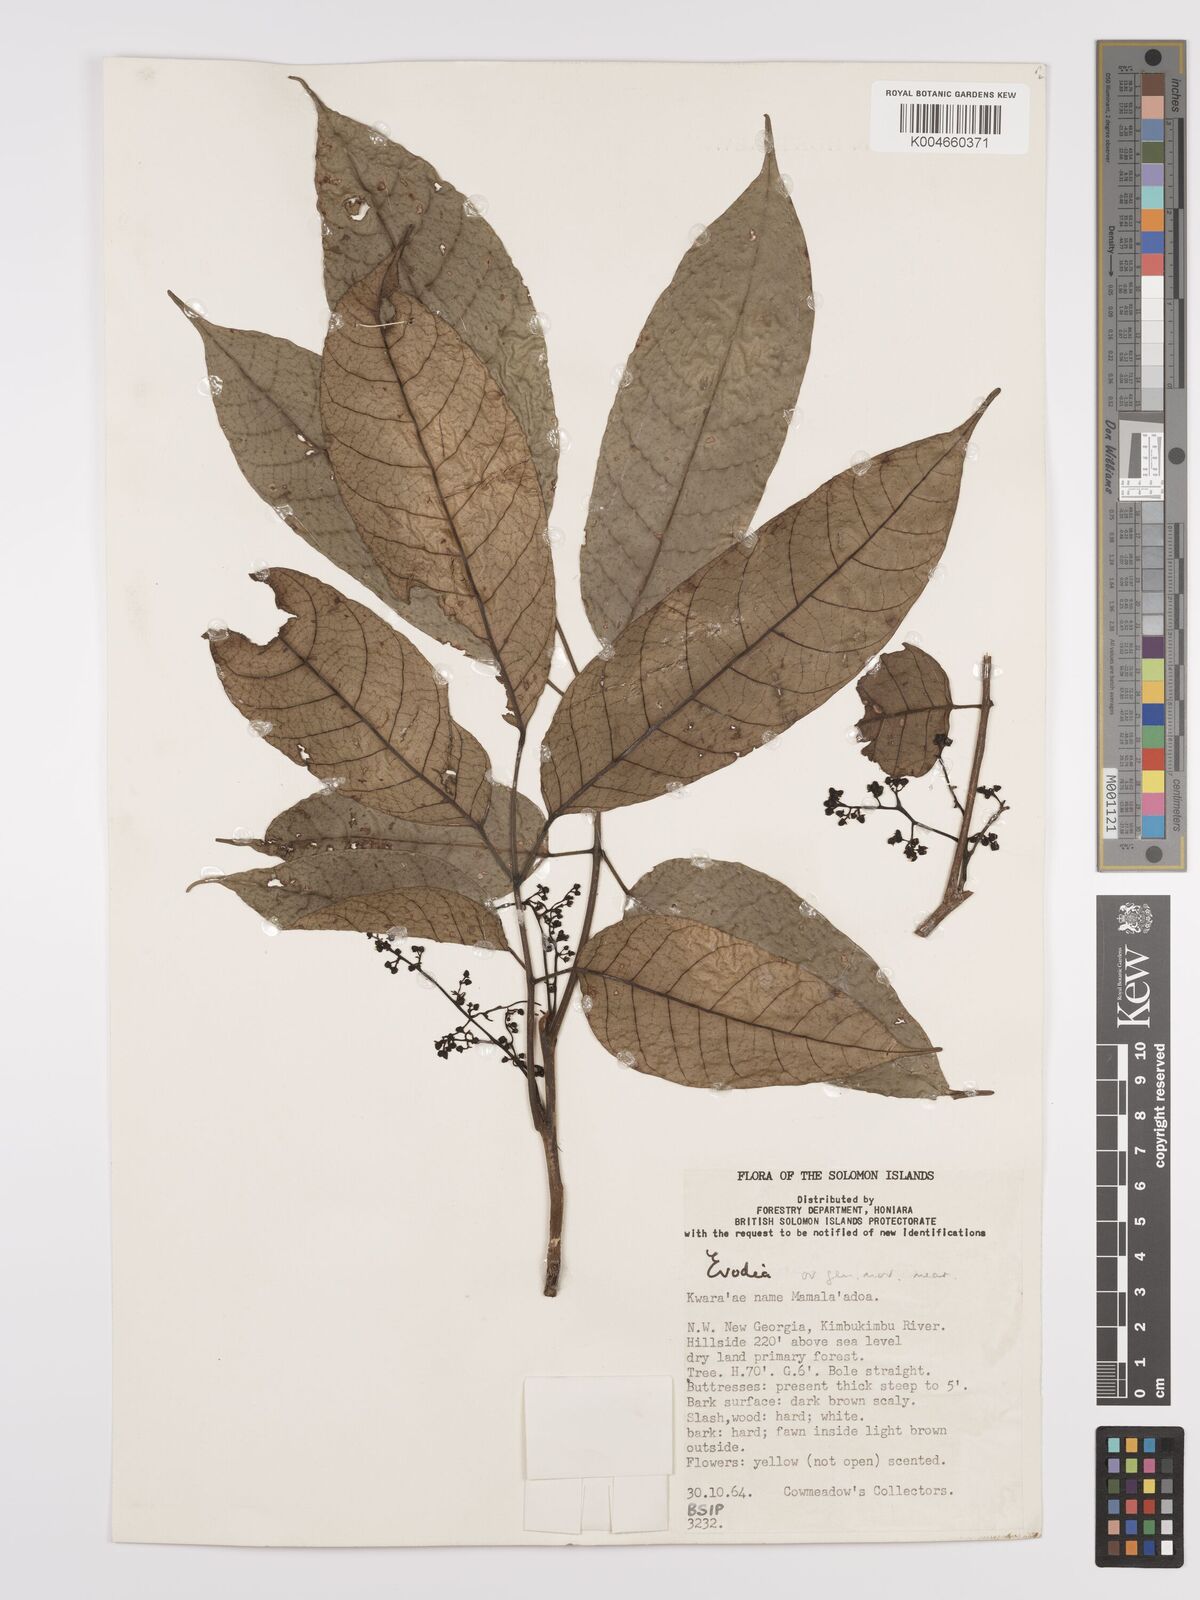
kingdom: Plantae
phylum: Tracheophyta
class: Magnoliopsida
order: Sapindales
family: Rutaceae
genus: Euodia
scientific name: Euodia
